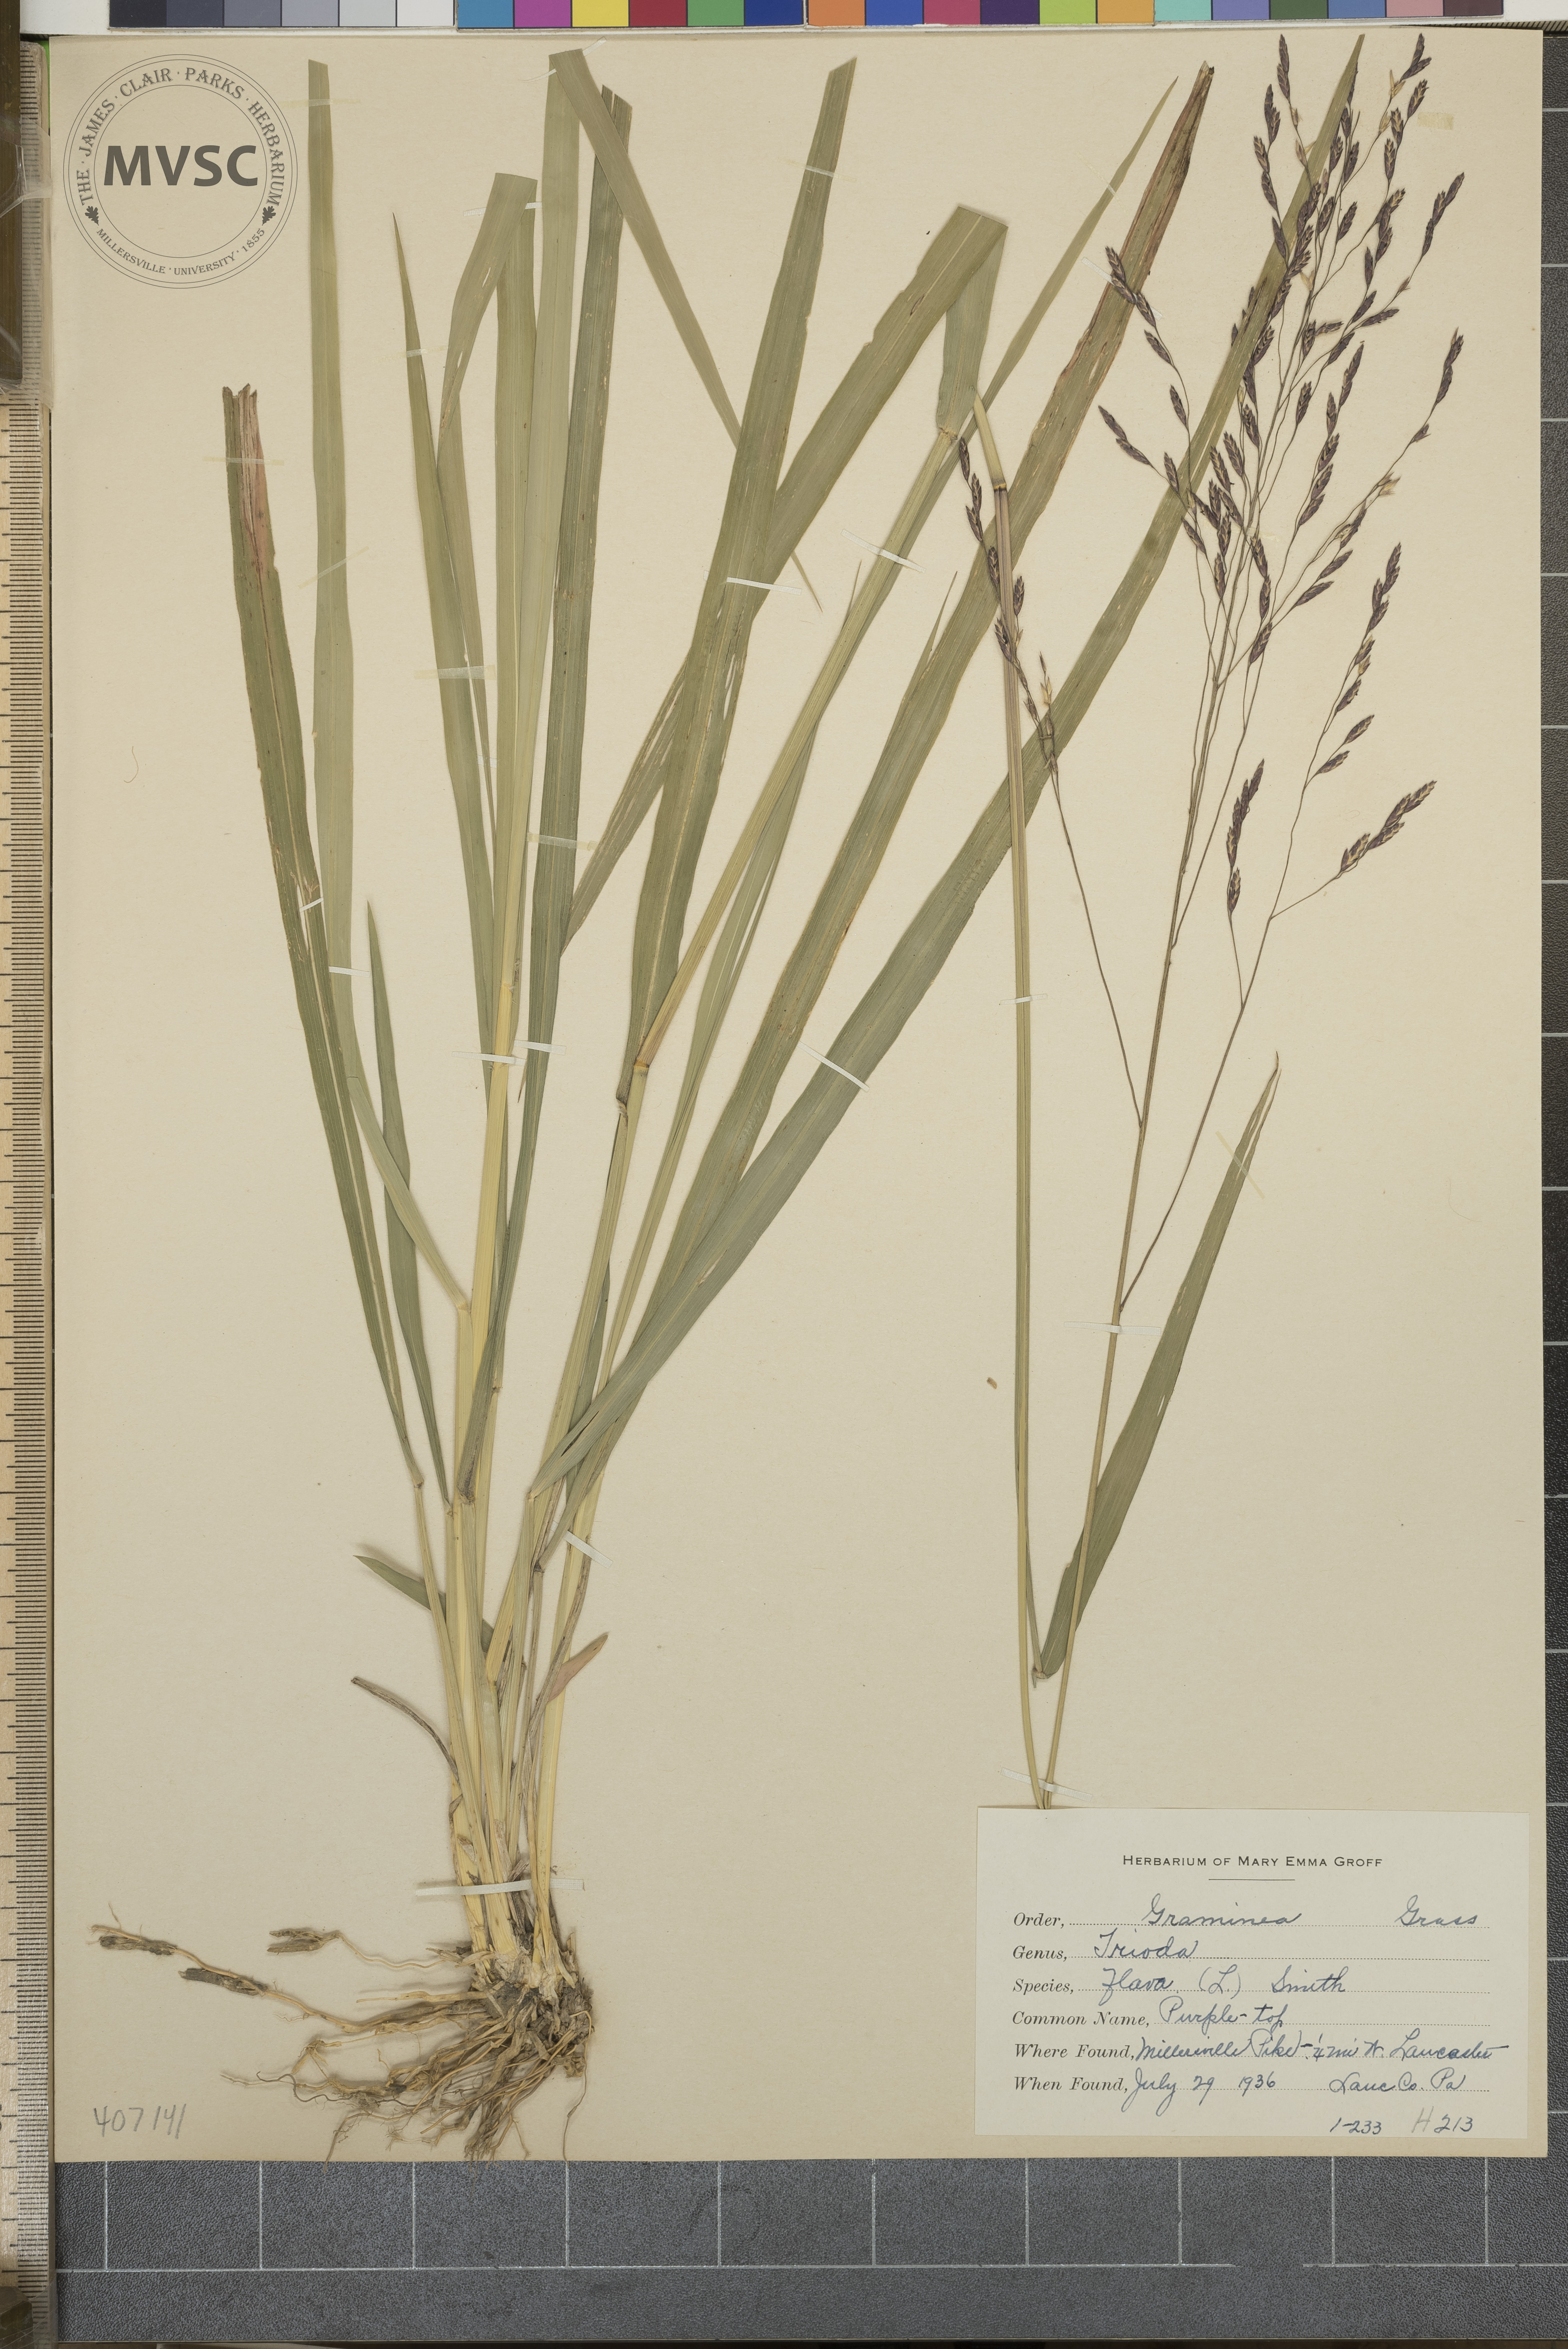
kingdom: Plantae
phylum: Tracheophyta
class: Liliopsida
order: Poales
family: Poaceae
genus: Tridens
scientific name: Tridens flavus
